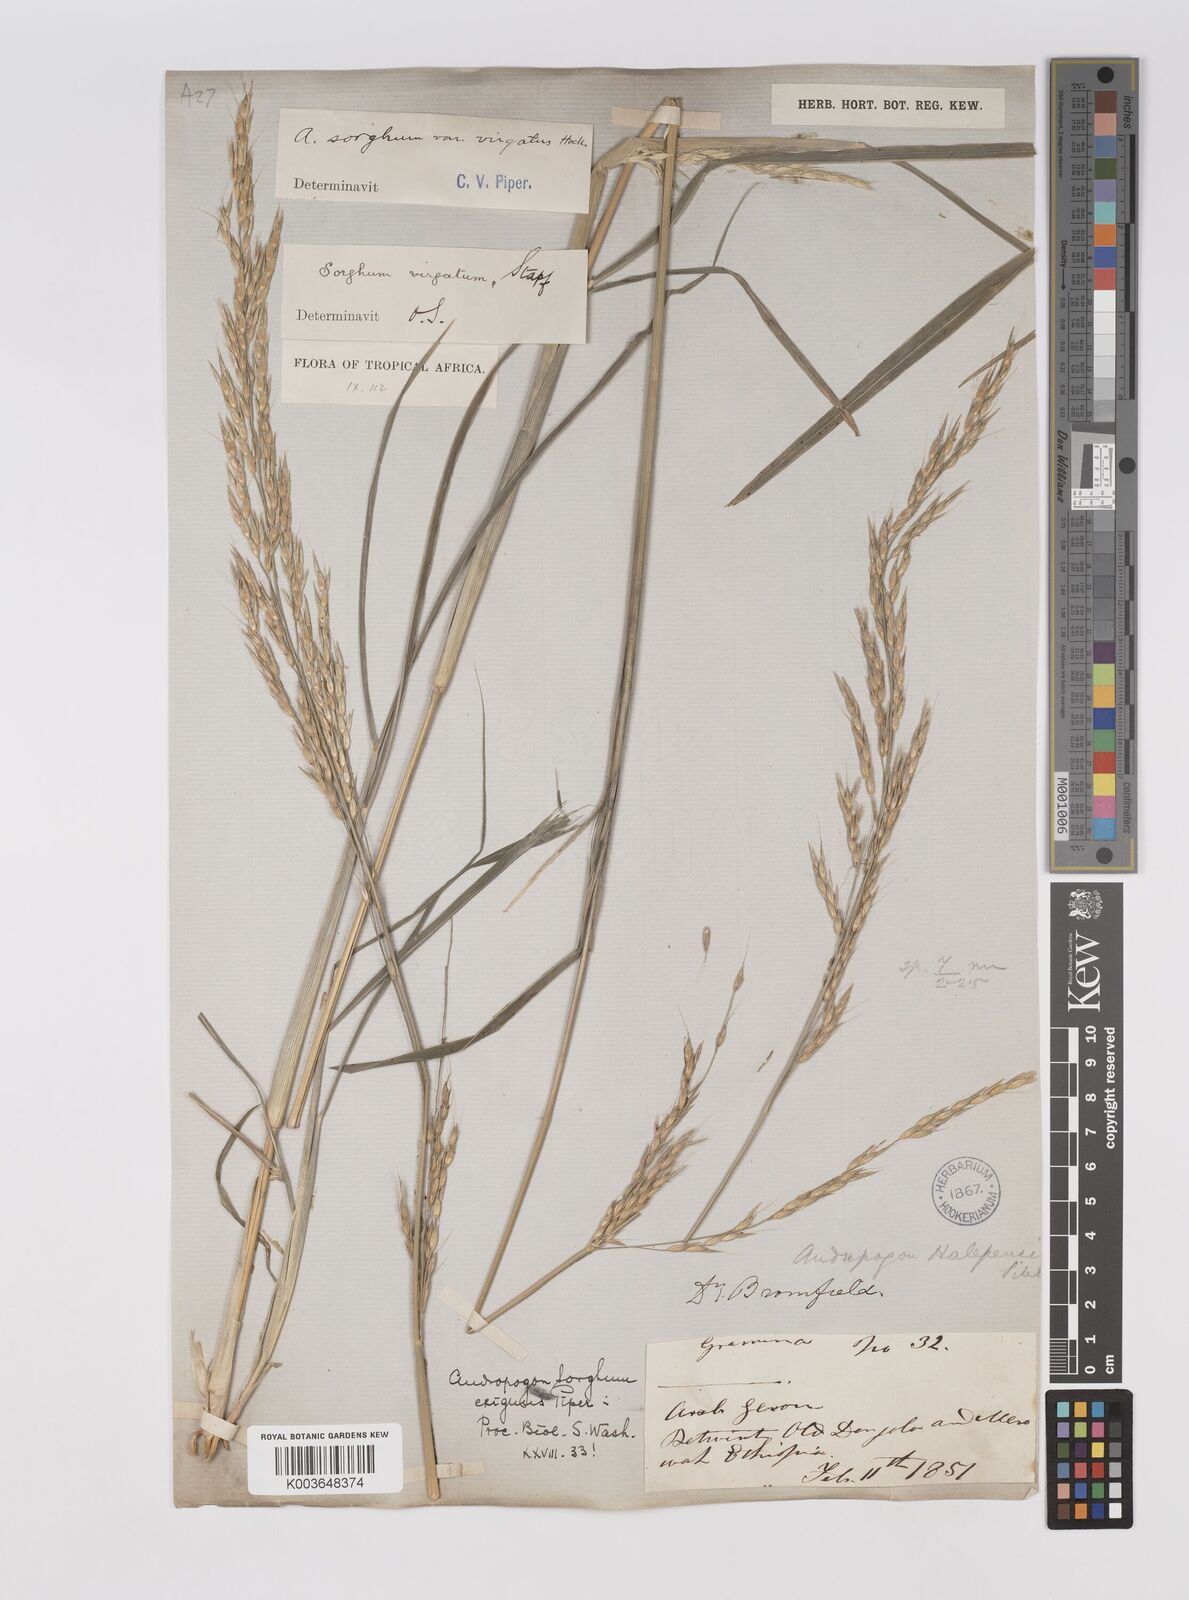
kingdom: Plantae
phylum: Tracheophyta
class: Liliopsida
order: Poales
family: Poaceae
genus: Sorghum
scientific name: Sorghum virgatum
